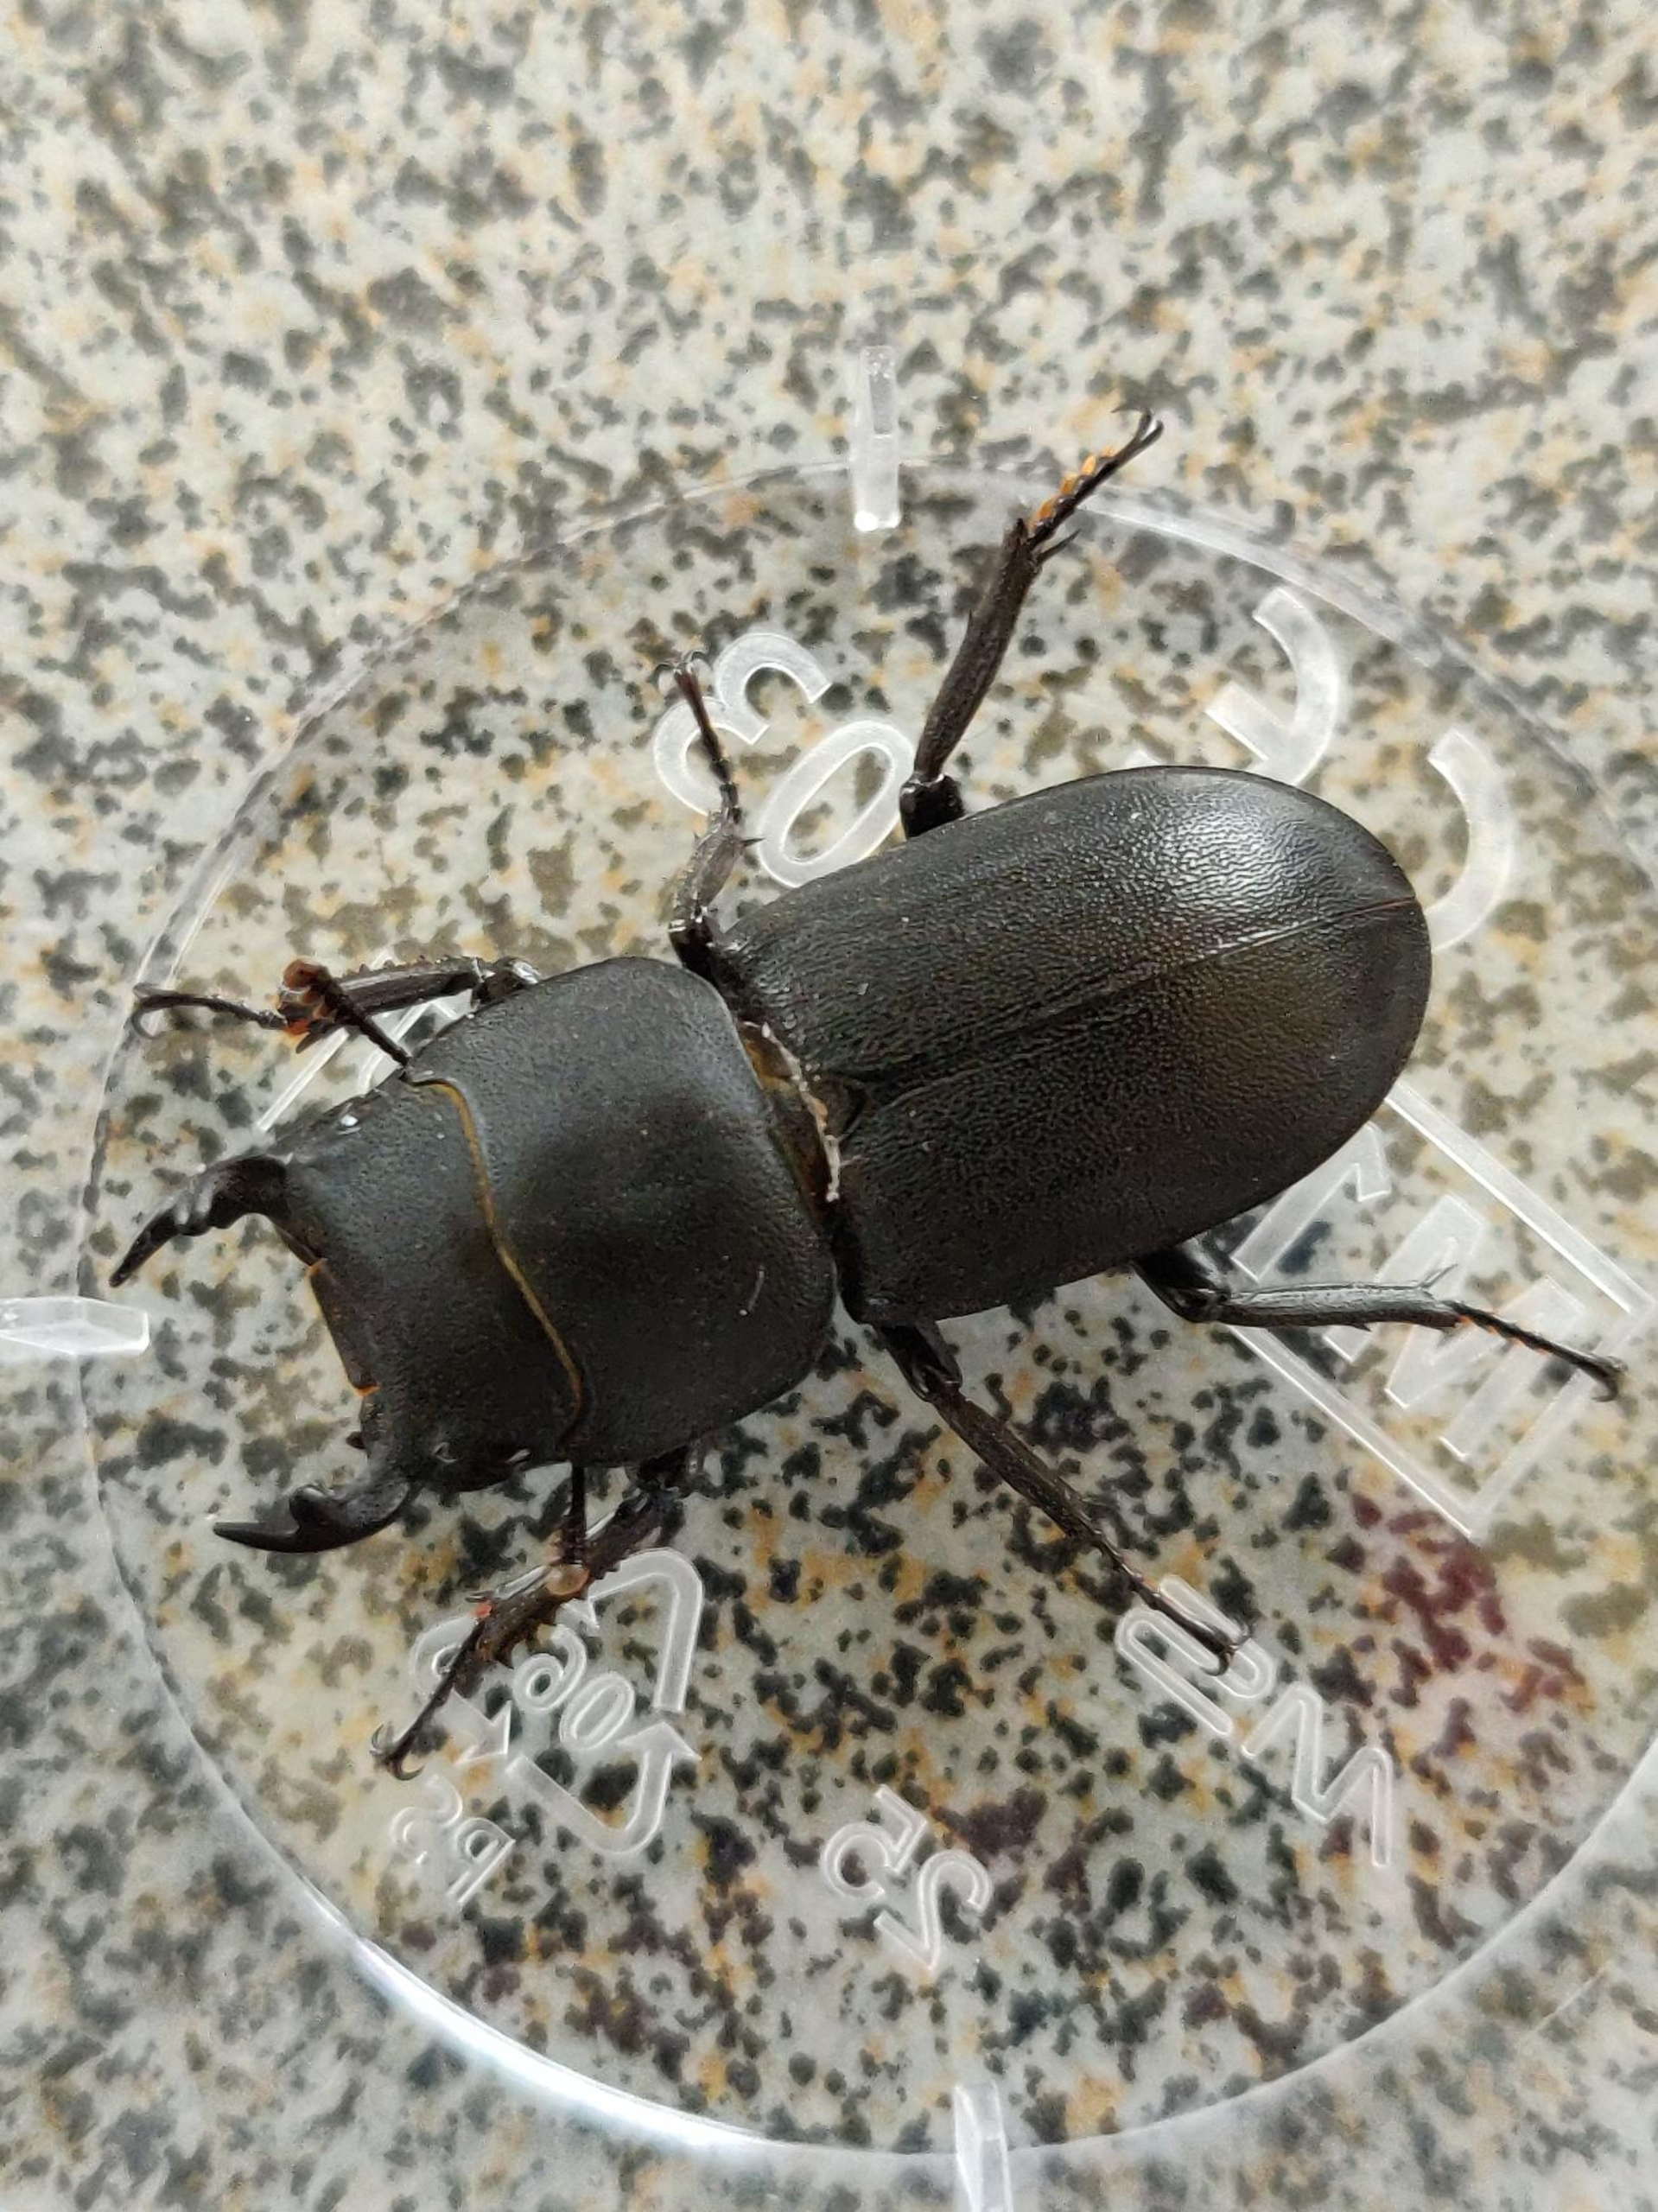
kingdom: Animalia
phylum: Arthropoda
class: Insecta
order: Coleoptera
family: Lucanidae
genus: Dorcus
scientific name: Dorcus parallelipipedus
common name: Bøghjort
